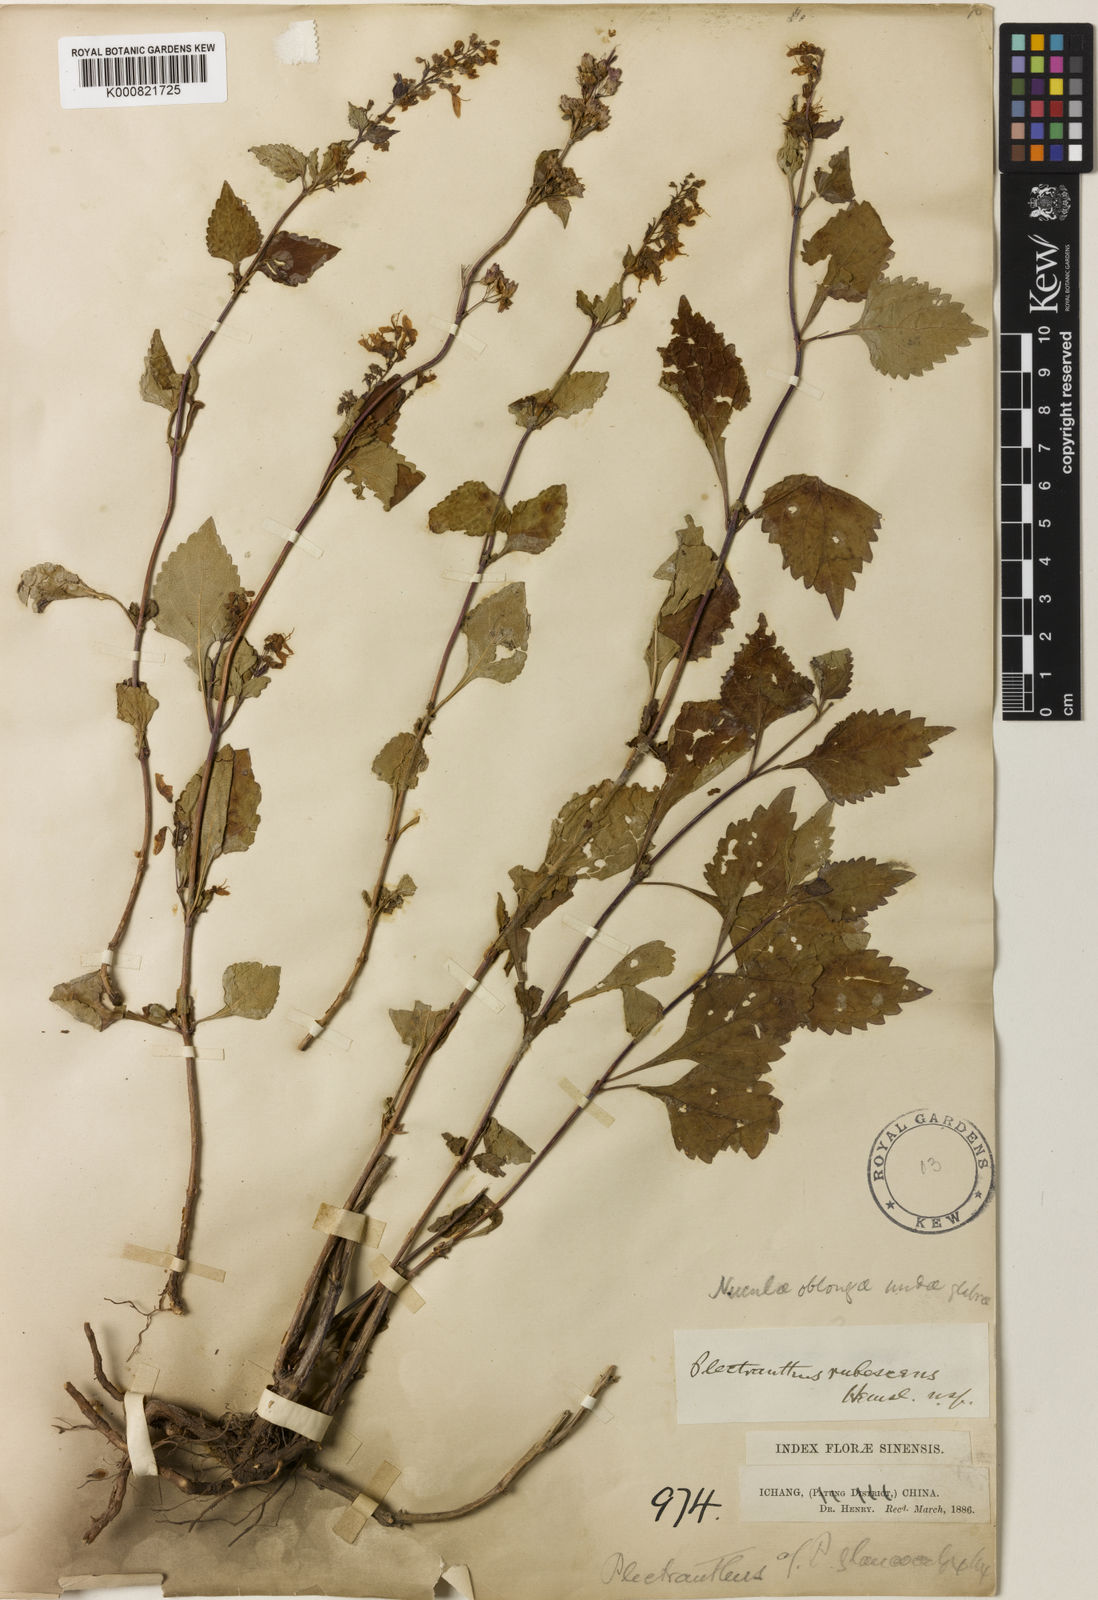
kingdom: Plantae
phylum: Tracheophyta
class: Magnoliopsida
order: Lamiales
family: Lamiaceae
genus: Isodon
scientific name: Isodon rubescens
